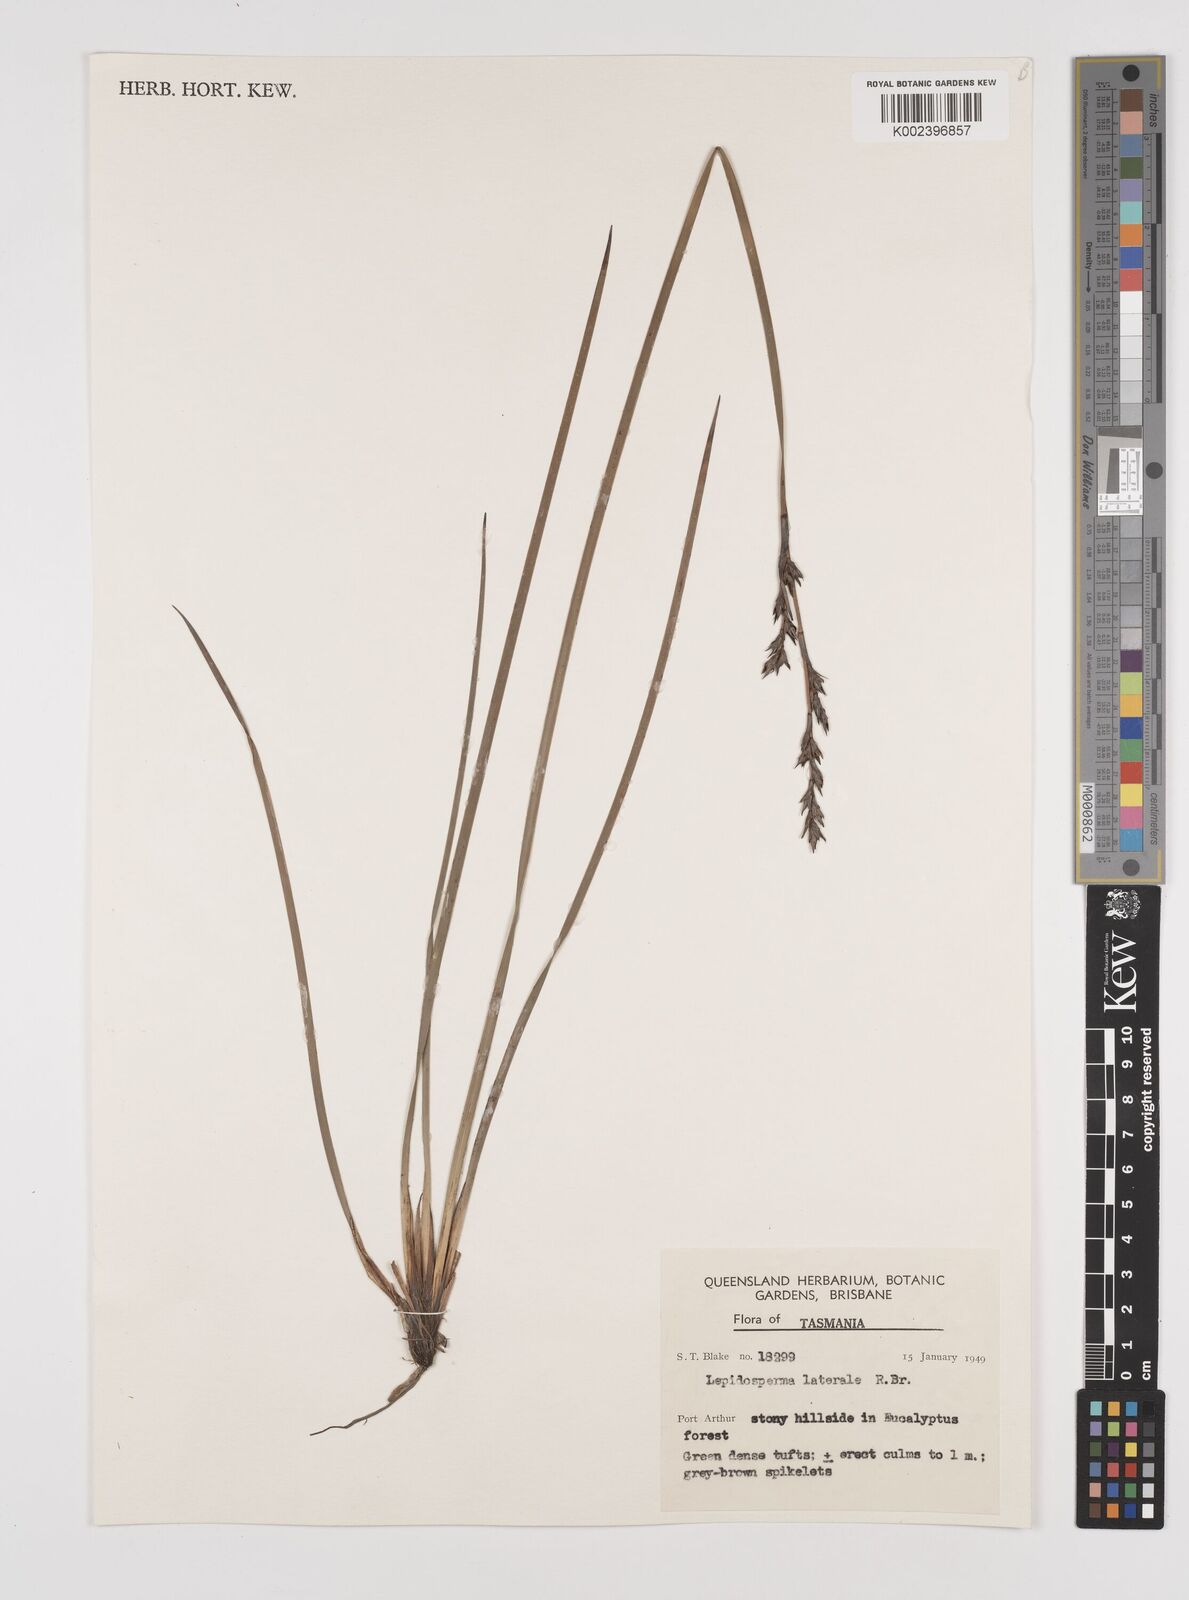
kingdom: Plantae
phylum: Tracheophyta
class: Liliopsida
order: Poales
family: Cyperaceae
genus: Lepidosperma
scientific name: Lepidosperma laterale
